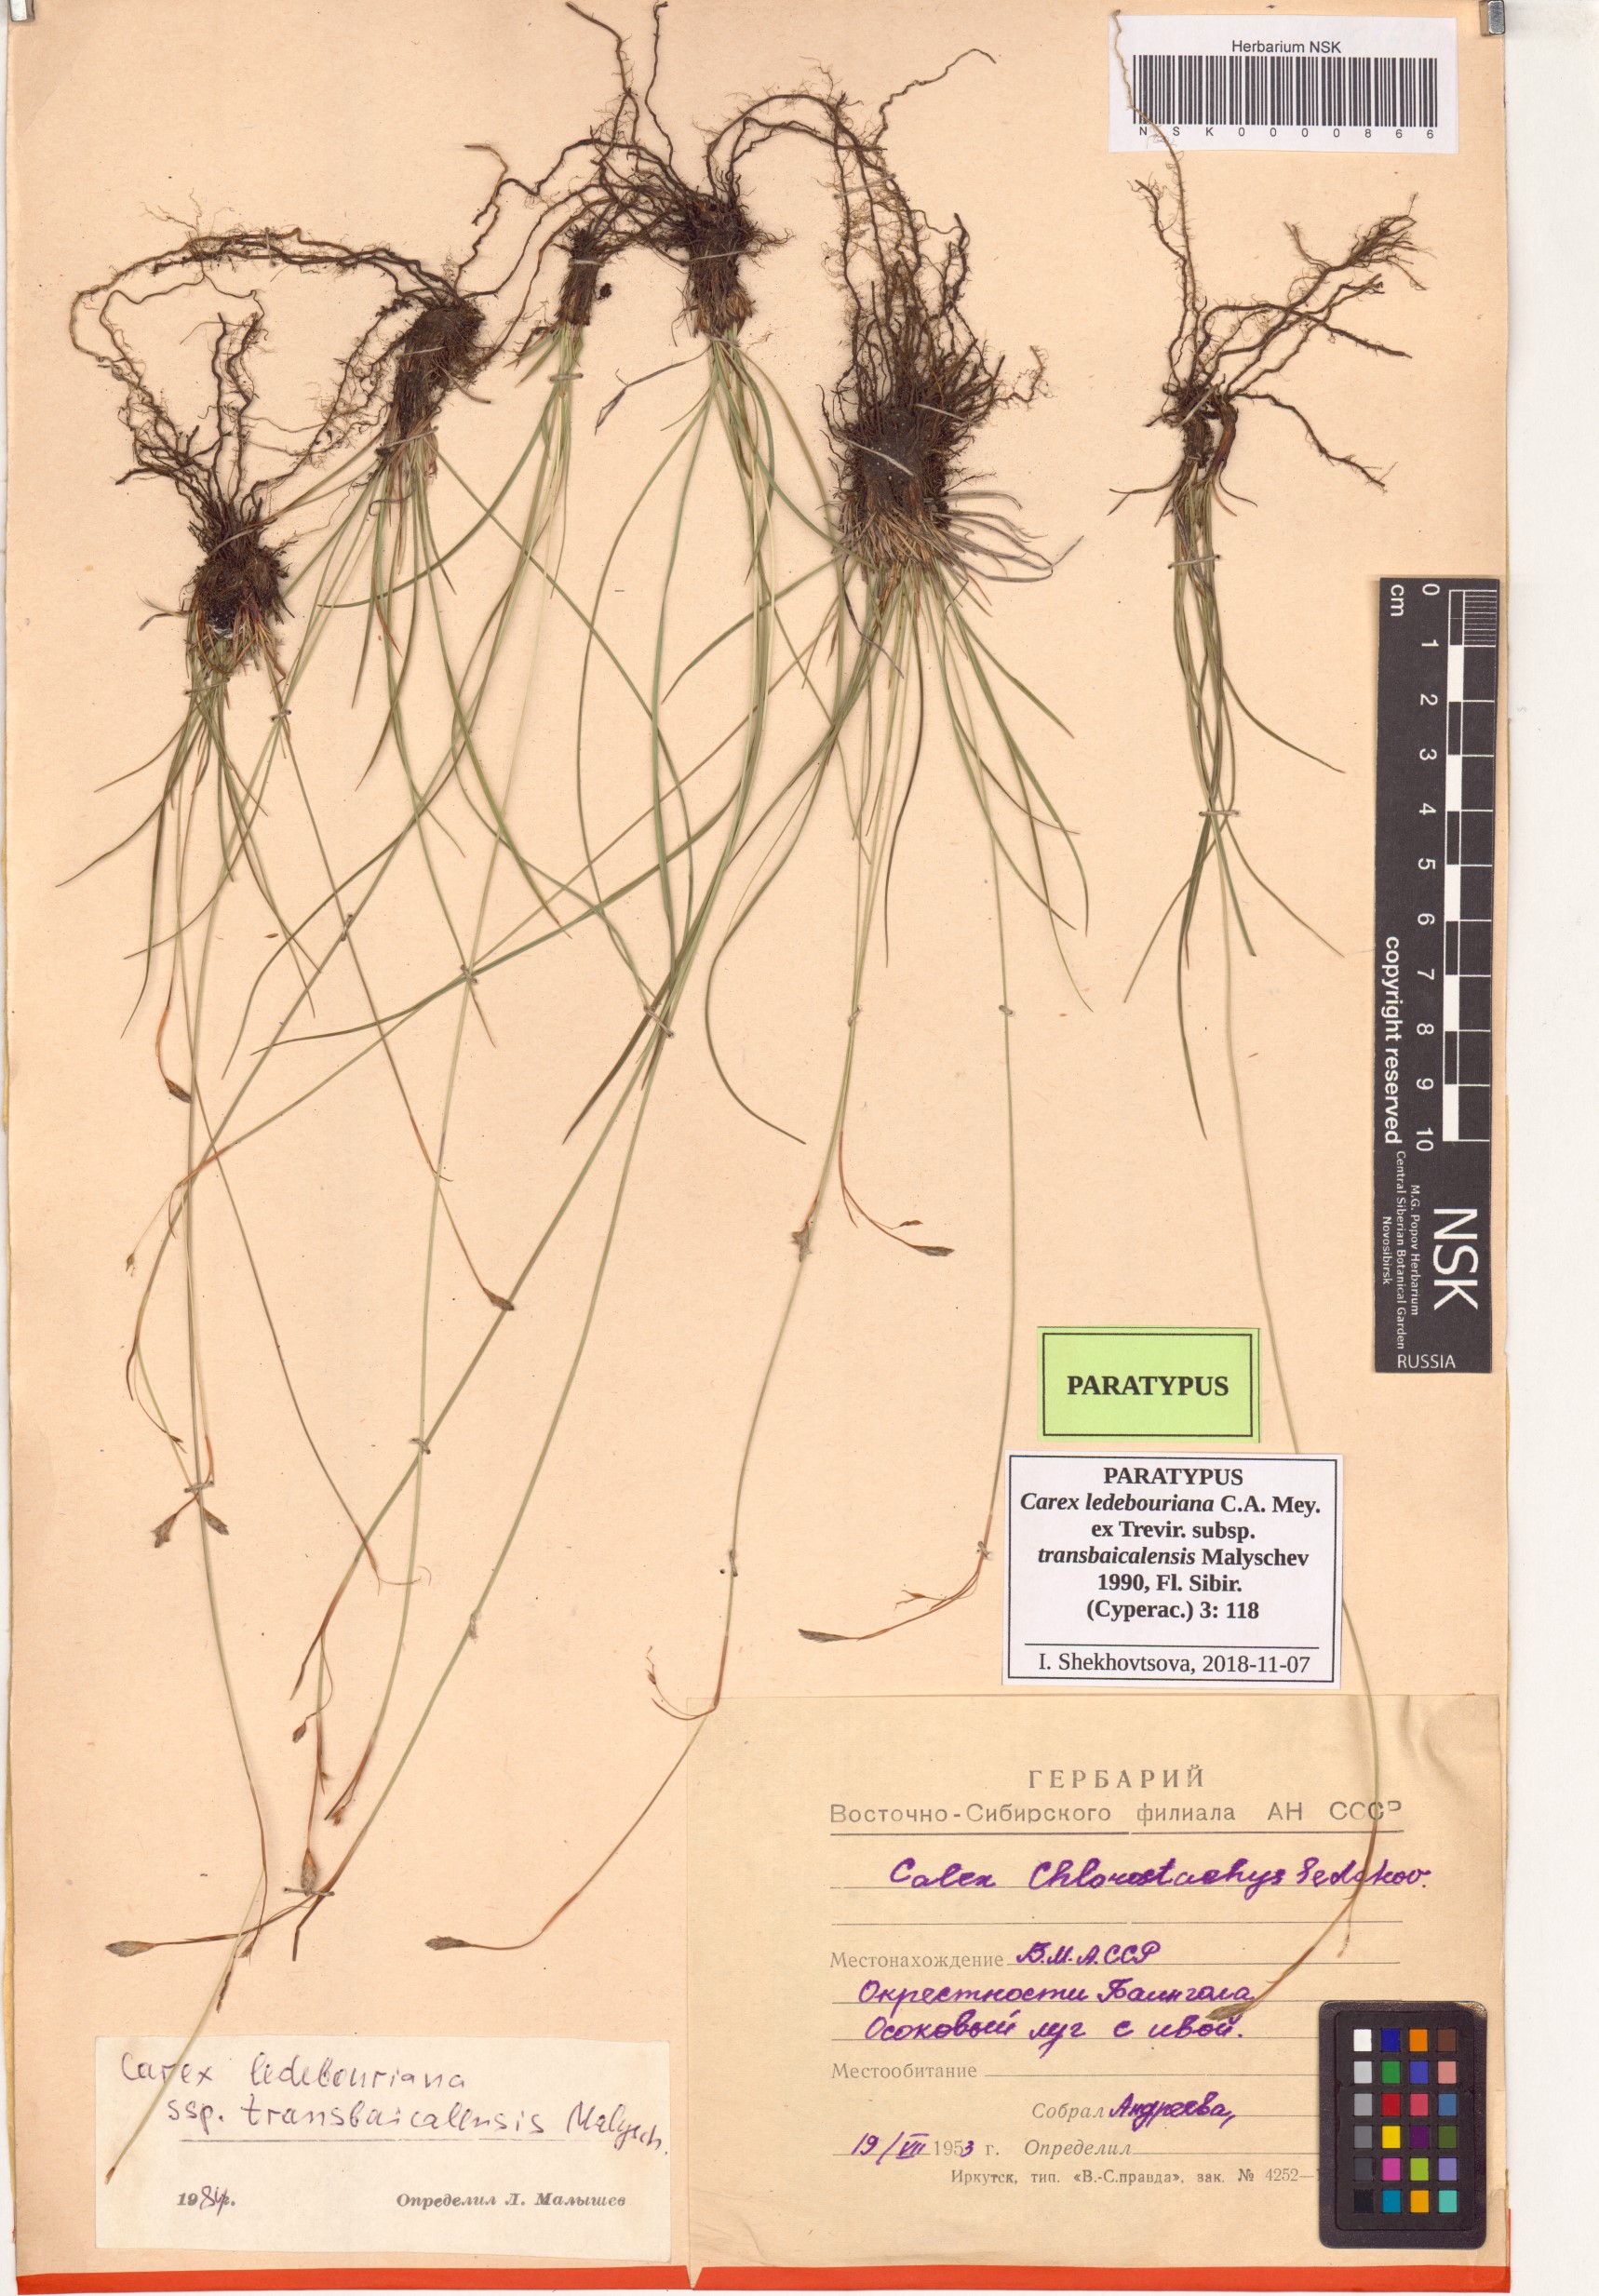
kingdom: Plantae
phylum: Tracheophyta
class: Liliopsida
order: Poales
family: Cyperaceae
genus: Carex
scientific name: Carex ledebouriana
